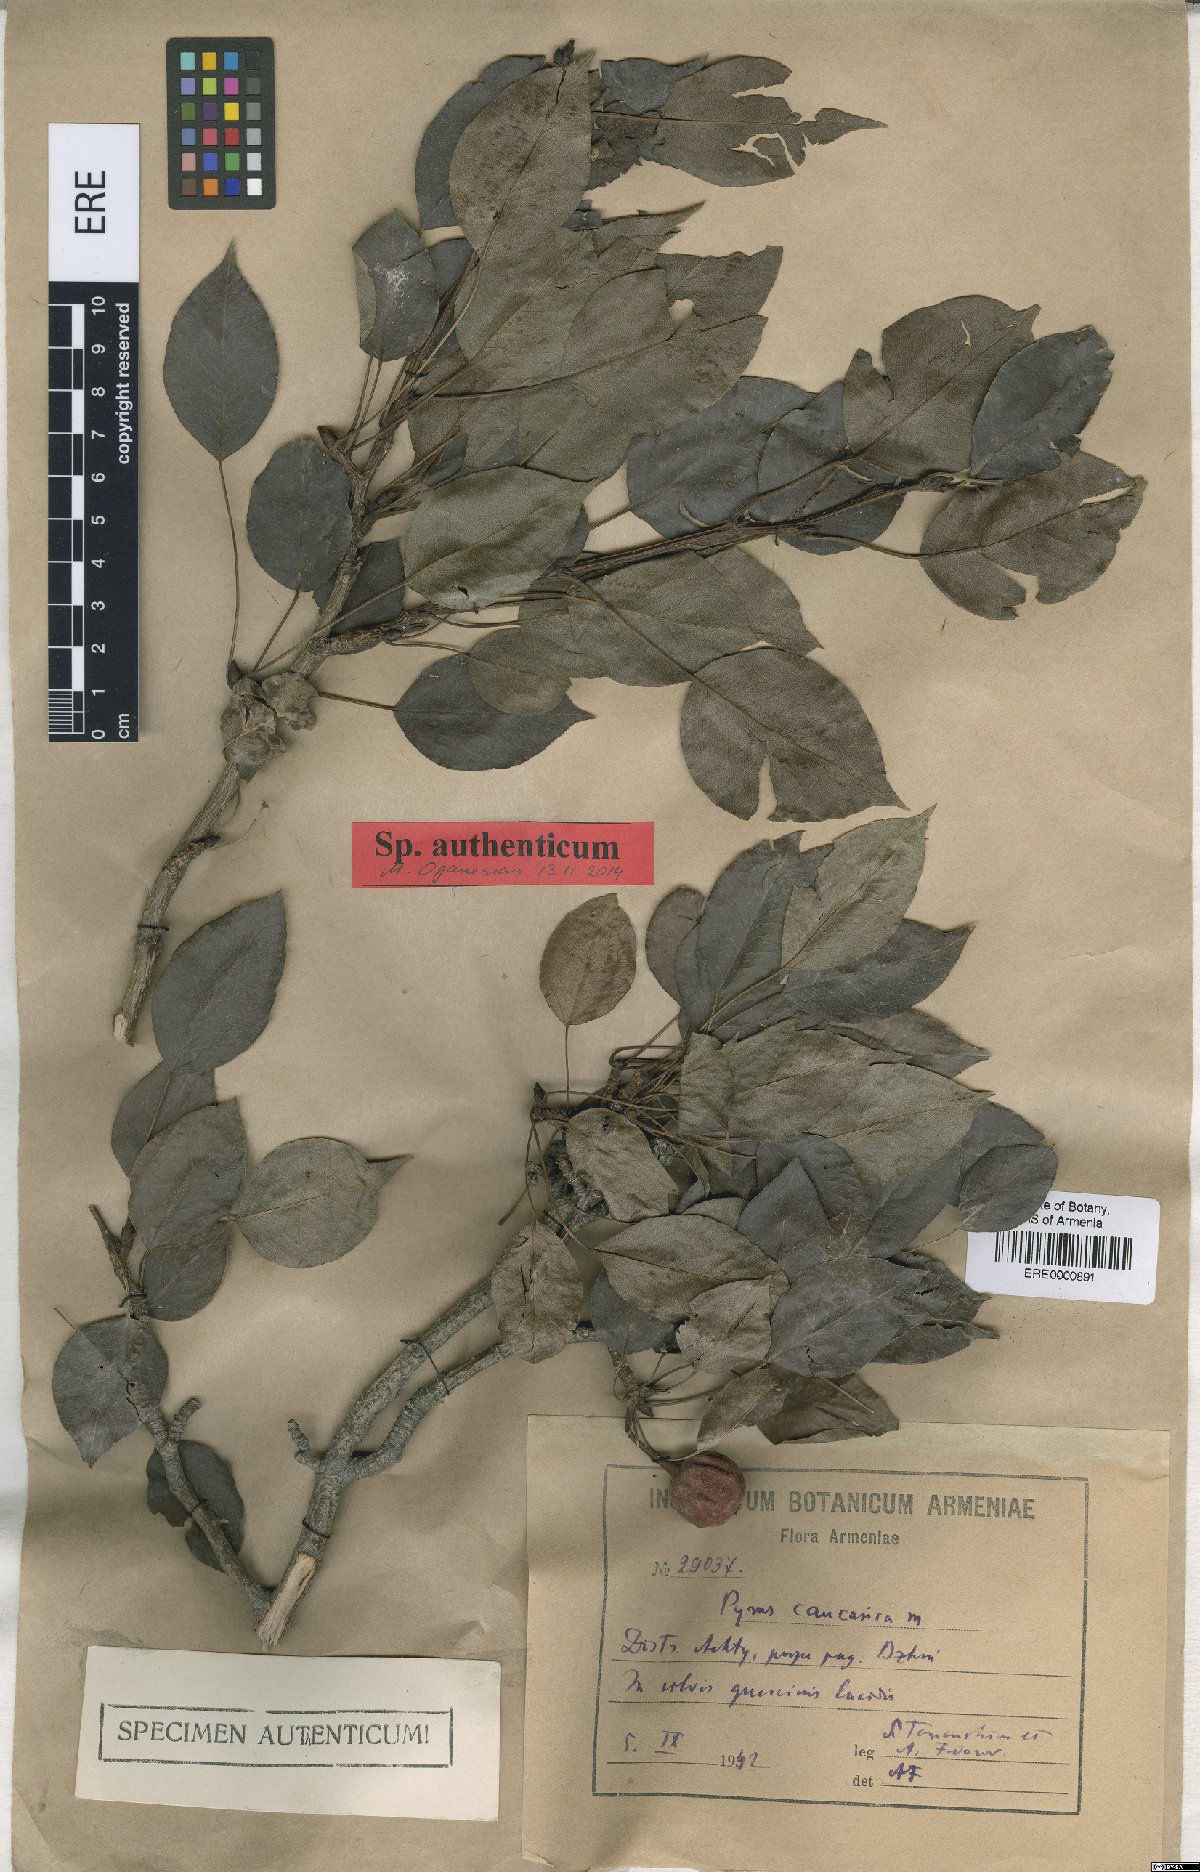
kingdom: Plantae
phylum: Tracheophyta
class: Magnoliopsida
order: Rosales
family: Rosaceae
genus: Pyrus
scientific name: Pyrus communis
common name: Pear
